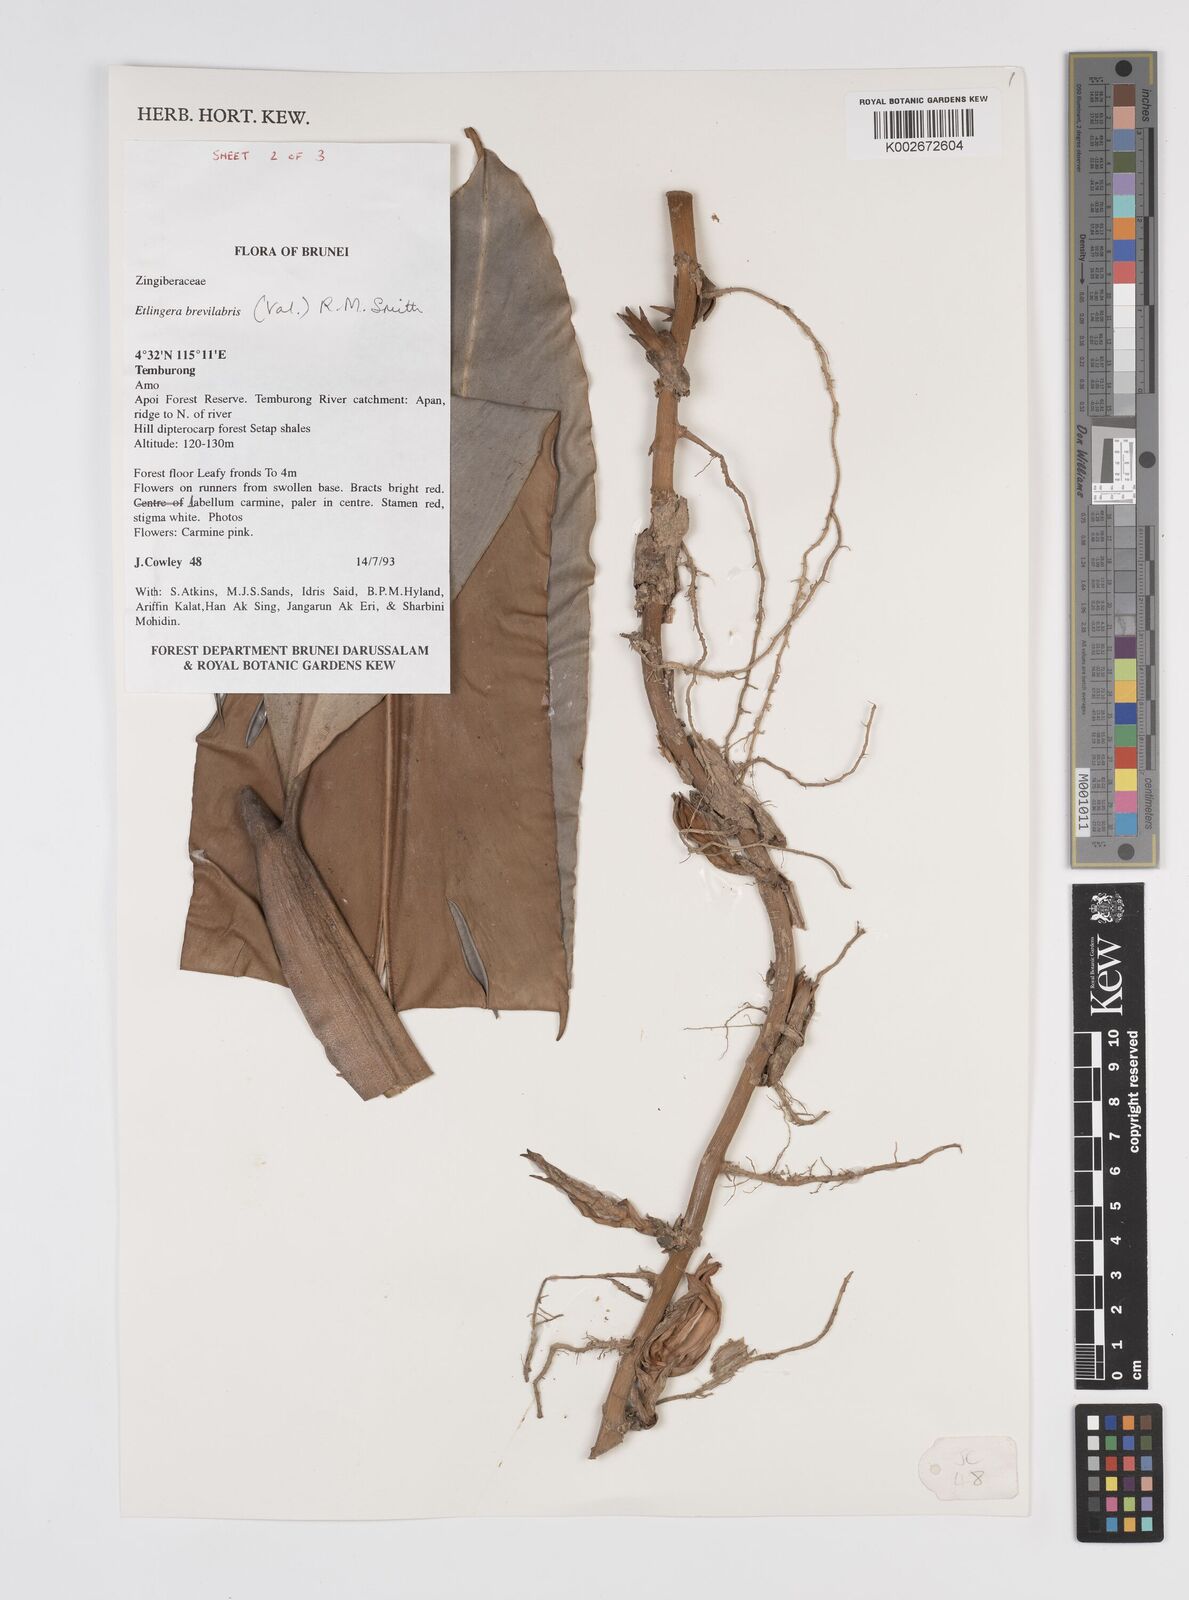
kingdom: Plantae
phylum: Tracheophyta
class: Liliopsida
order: Zingiberales
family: Zingiberaceae
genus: Etlingera
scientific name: Etlingera
